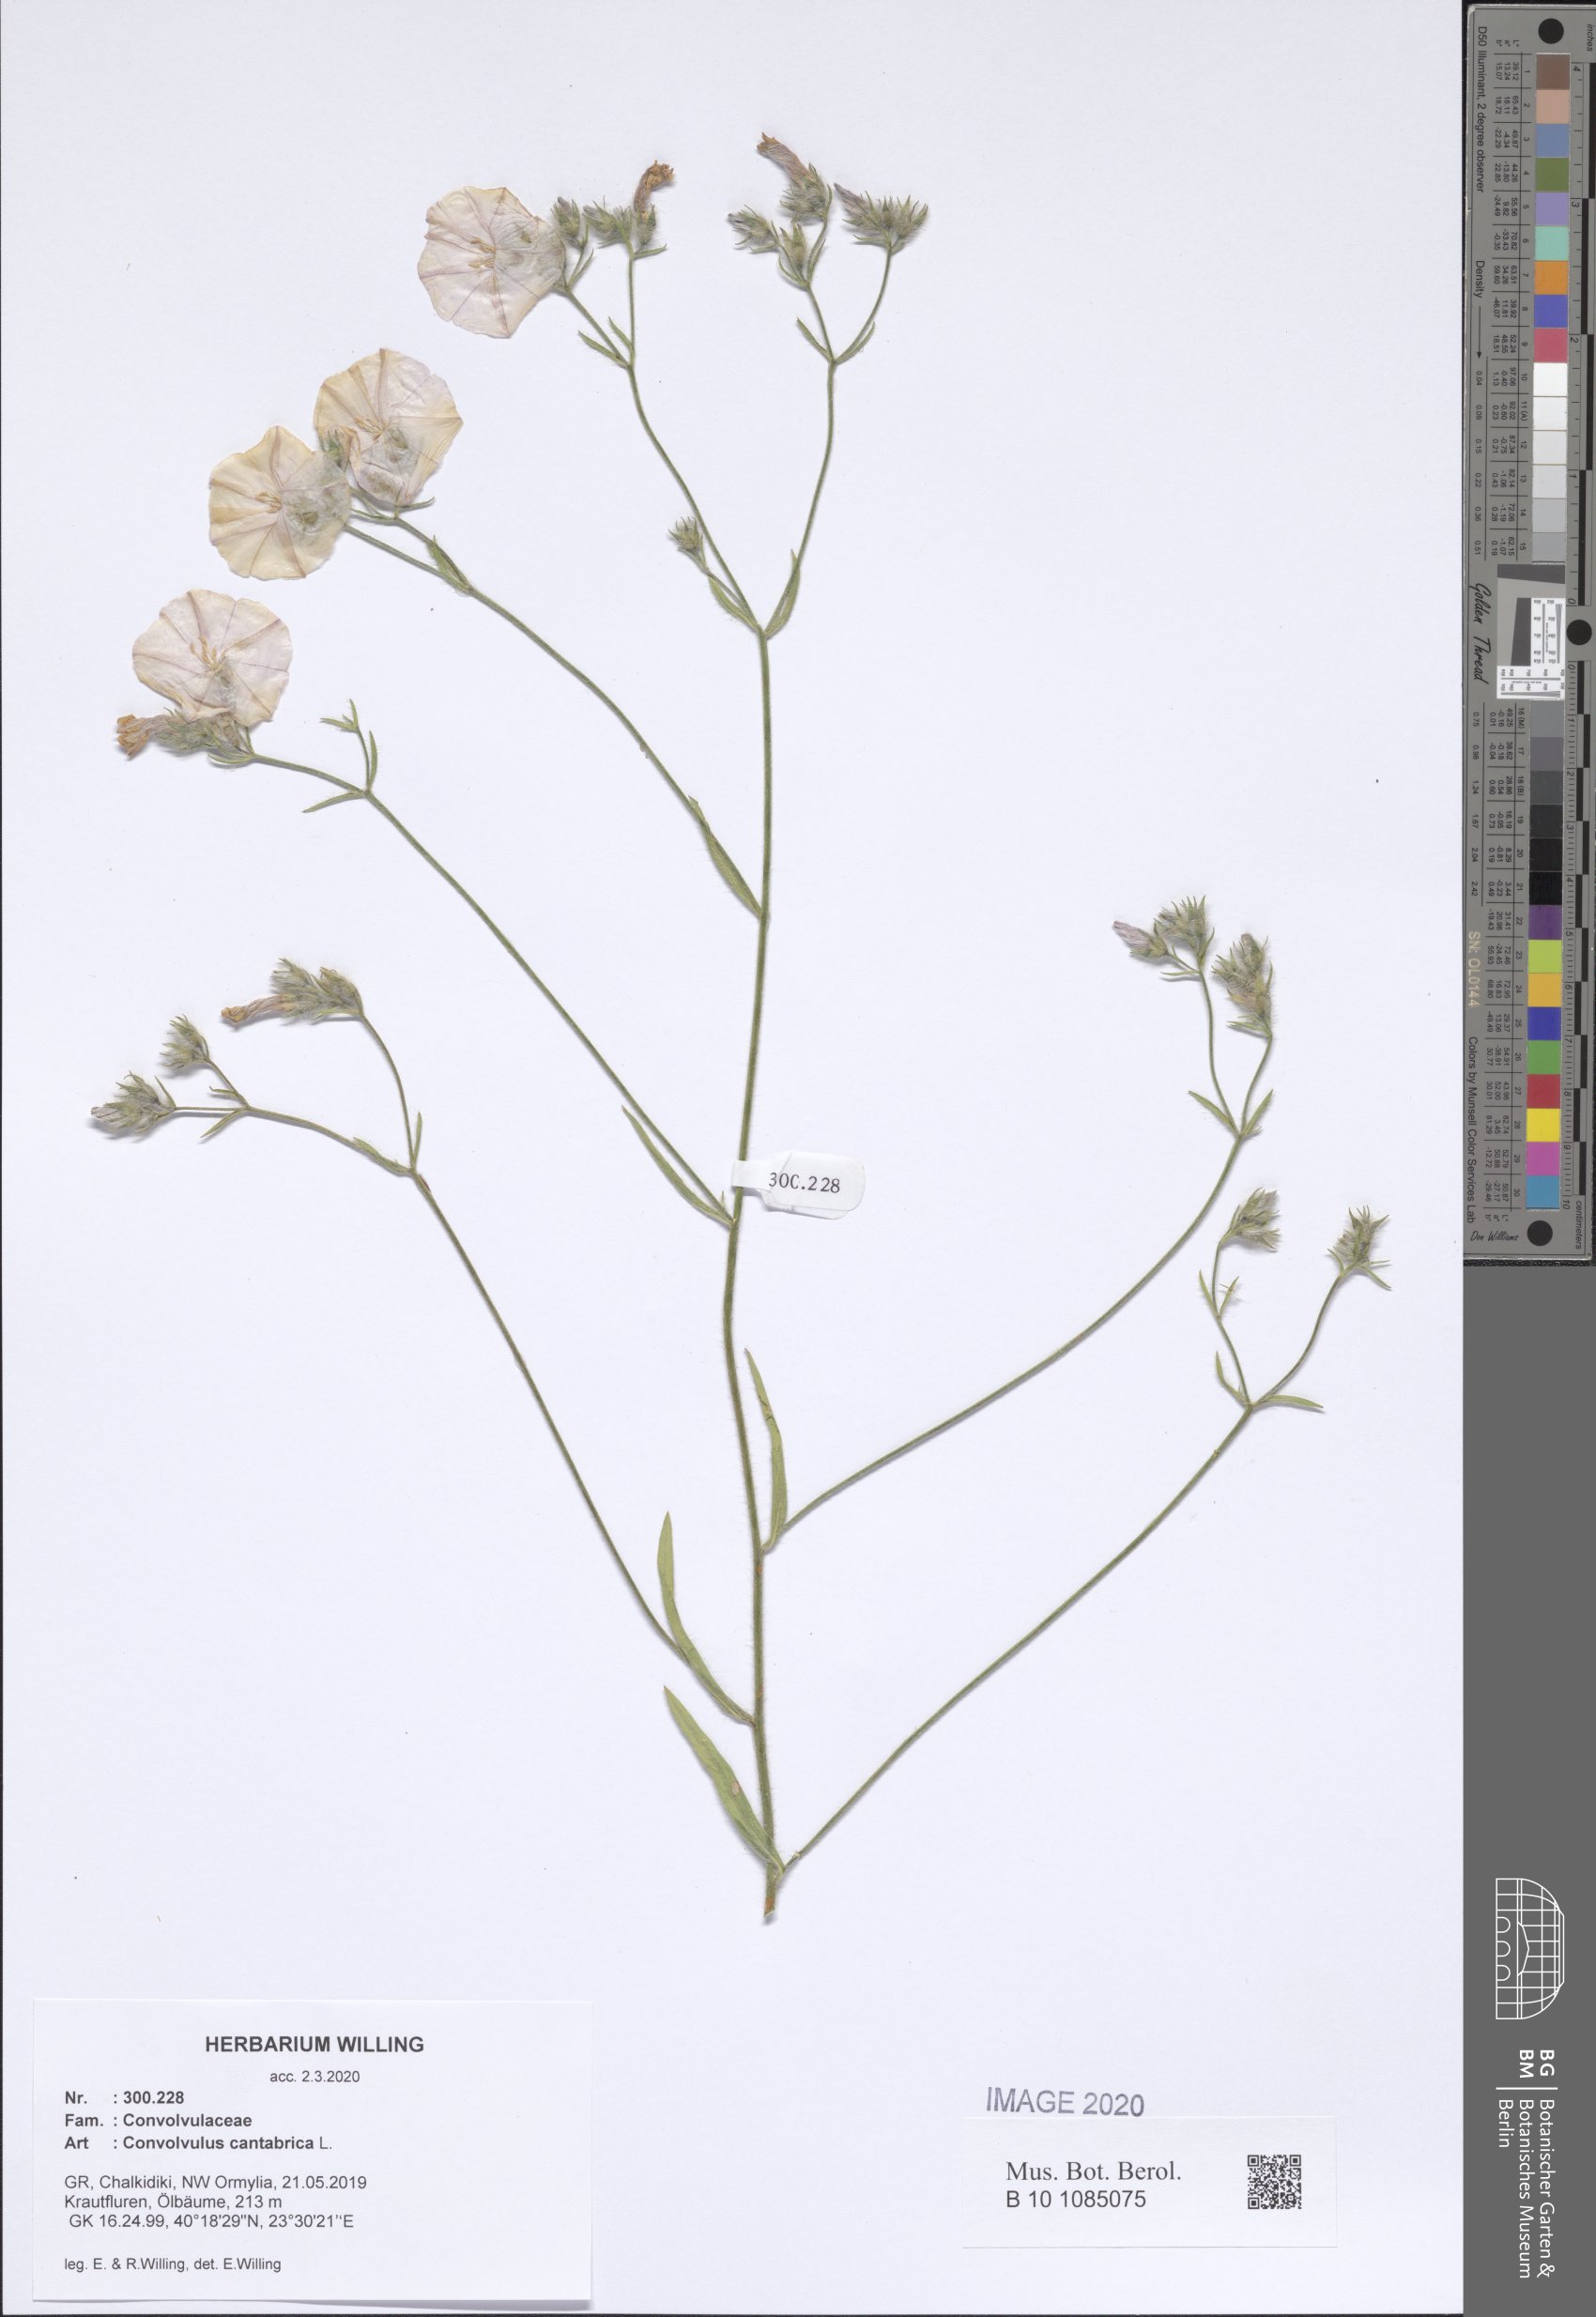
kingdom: Plantae
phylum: Tracheophyta
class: Magnoliopsida
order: Solanales
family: Convolvulaceae
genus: Convolvulus
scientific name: Convolvulus cantabrica
